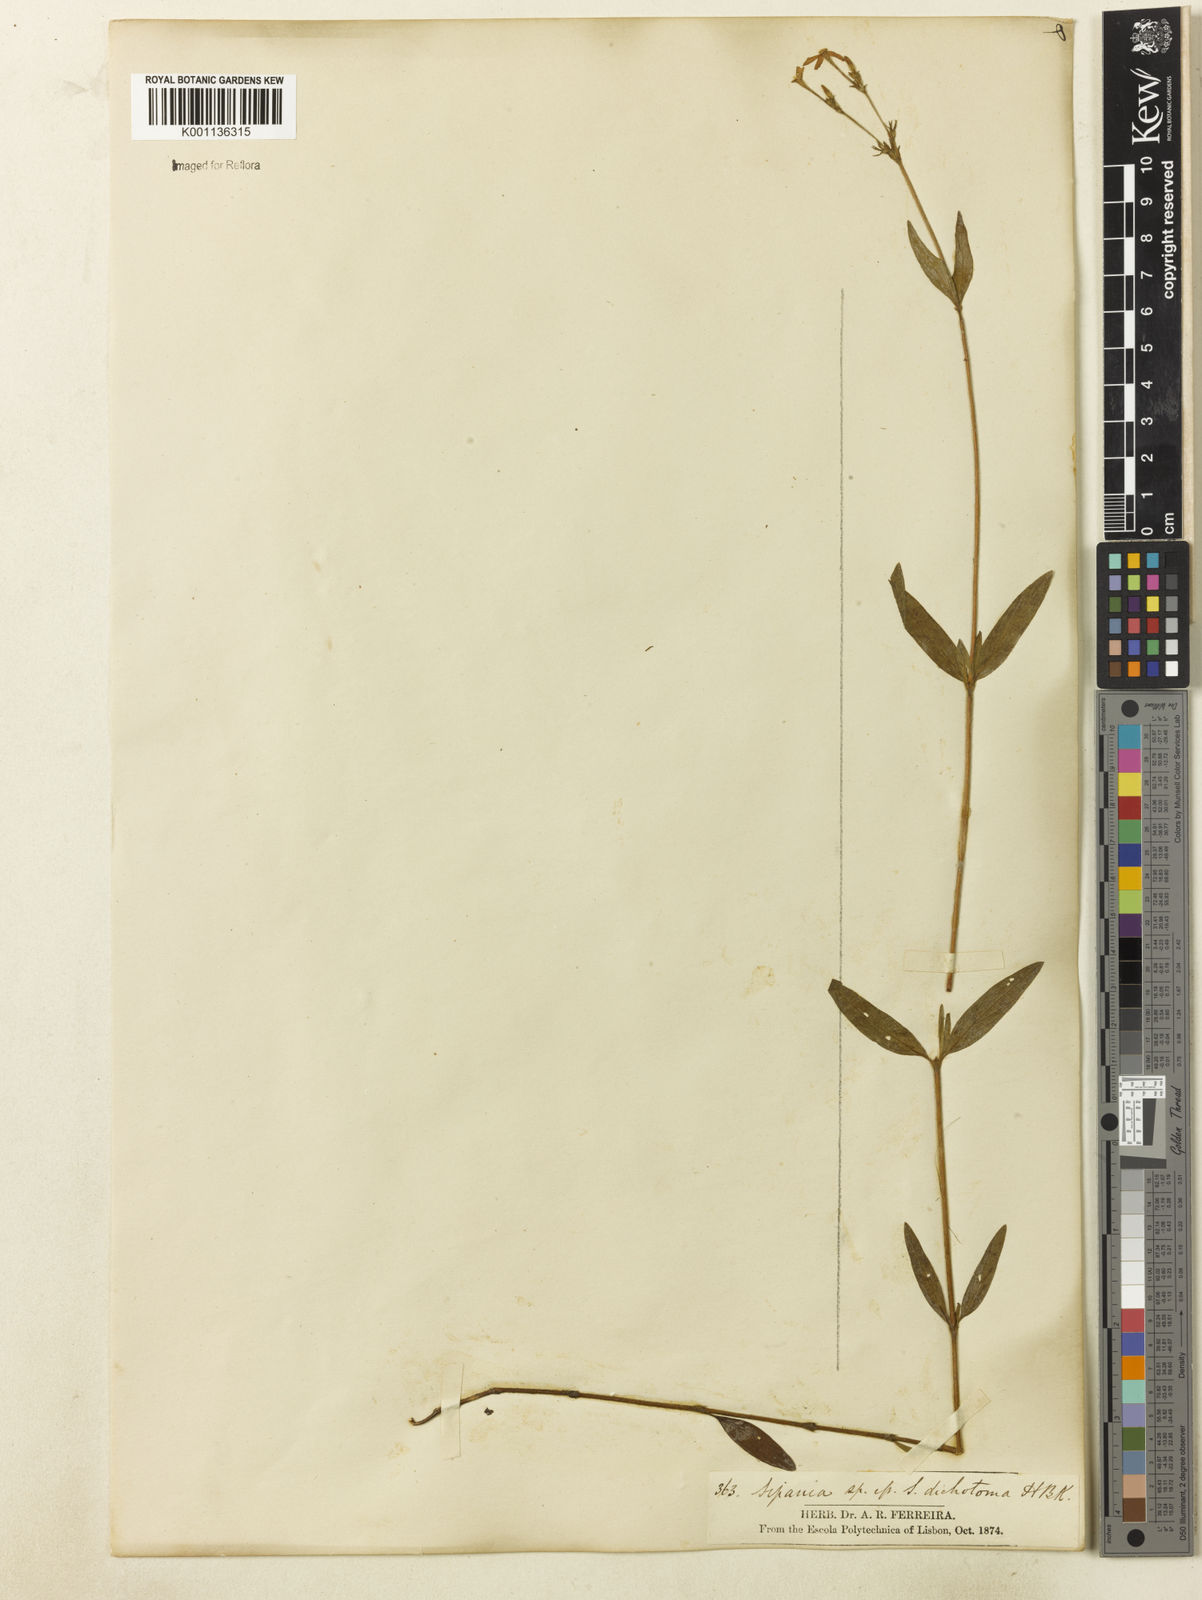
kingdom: Plantae
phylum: Tracheophyta
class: Magnoliopsida
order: Gentianales
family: Rubiaceae
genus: Sipanea
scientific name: Sipanea pratensis
